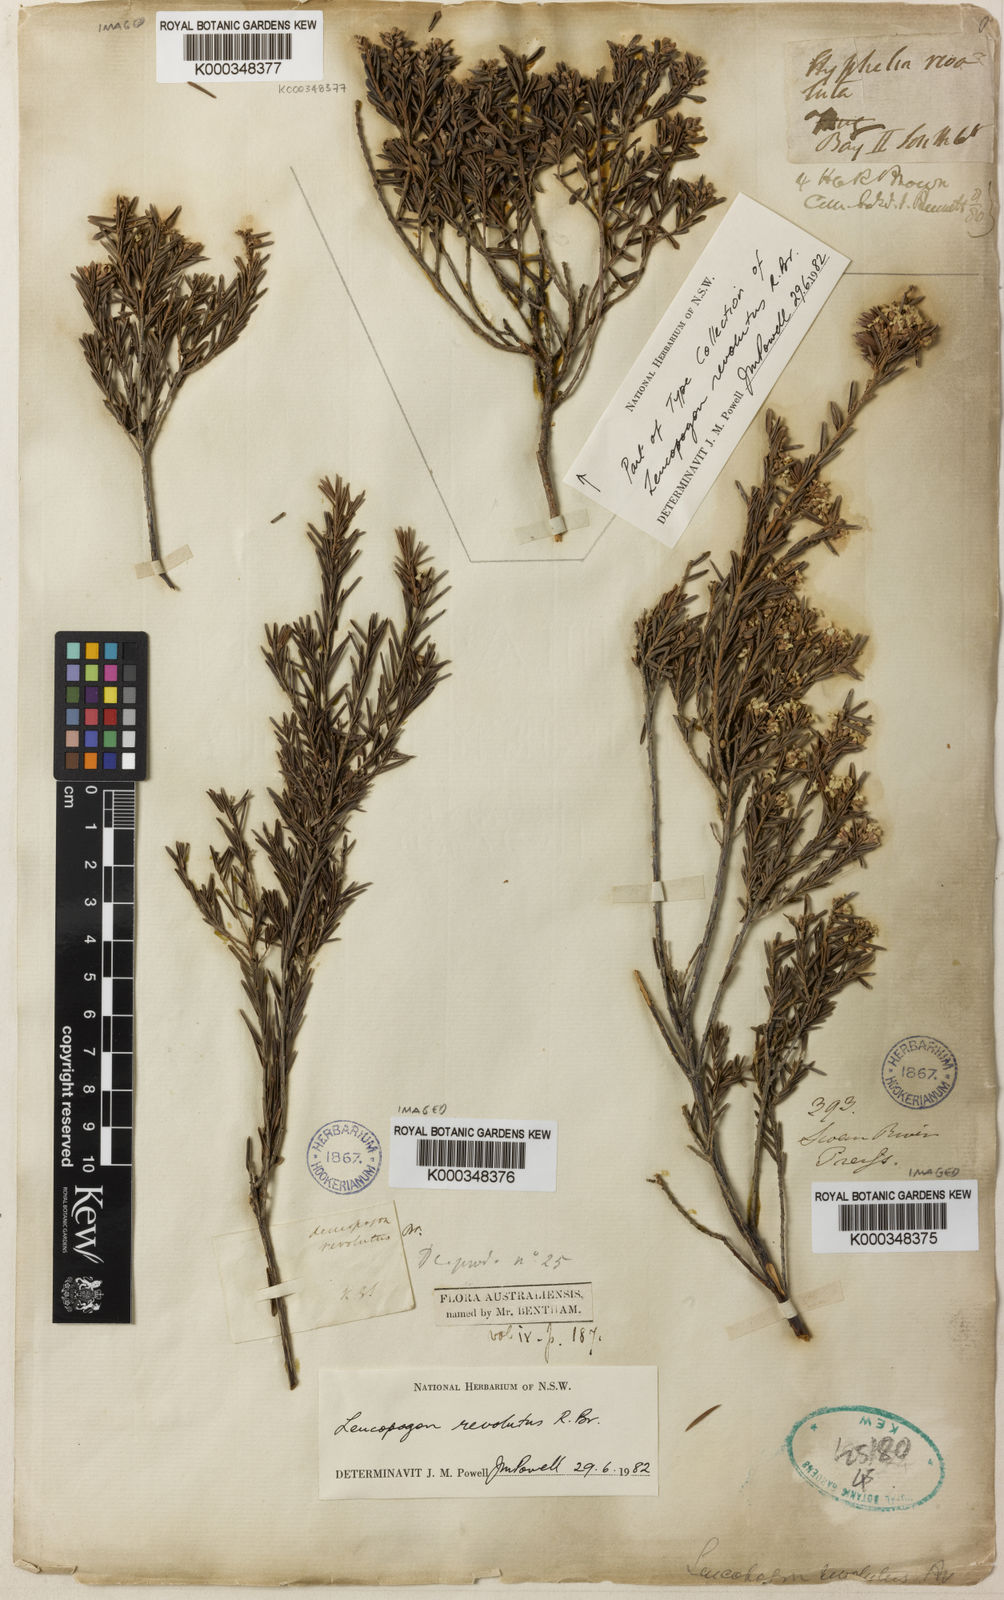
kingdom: Plantae
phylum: Tracheophyta
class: Magnoliopsida
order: Ericales
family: Ericaceae
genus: Leucopogon
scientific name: Leucopogon obovatus
